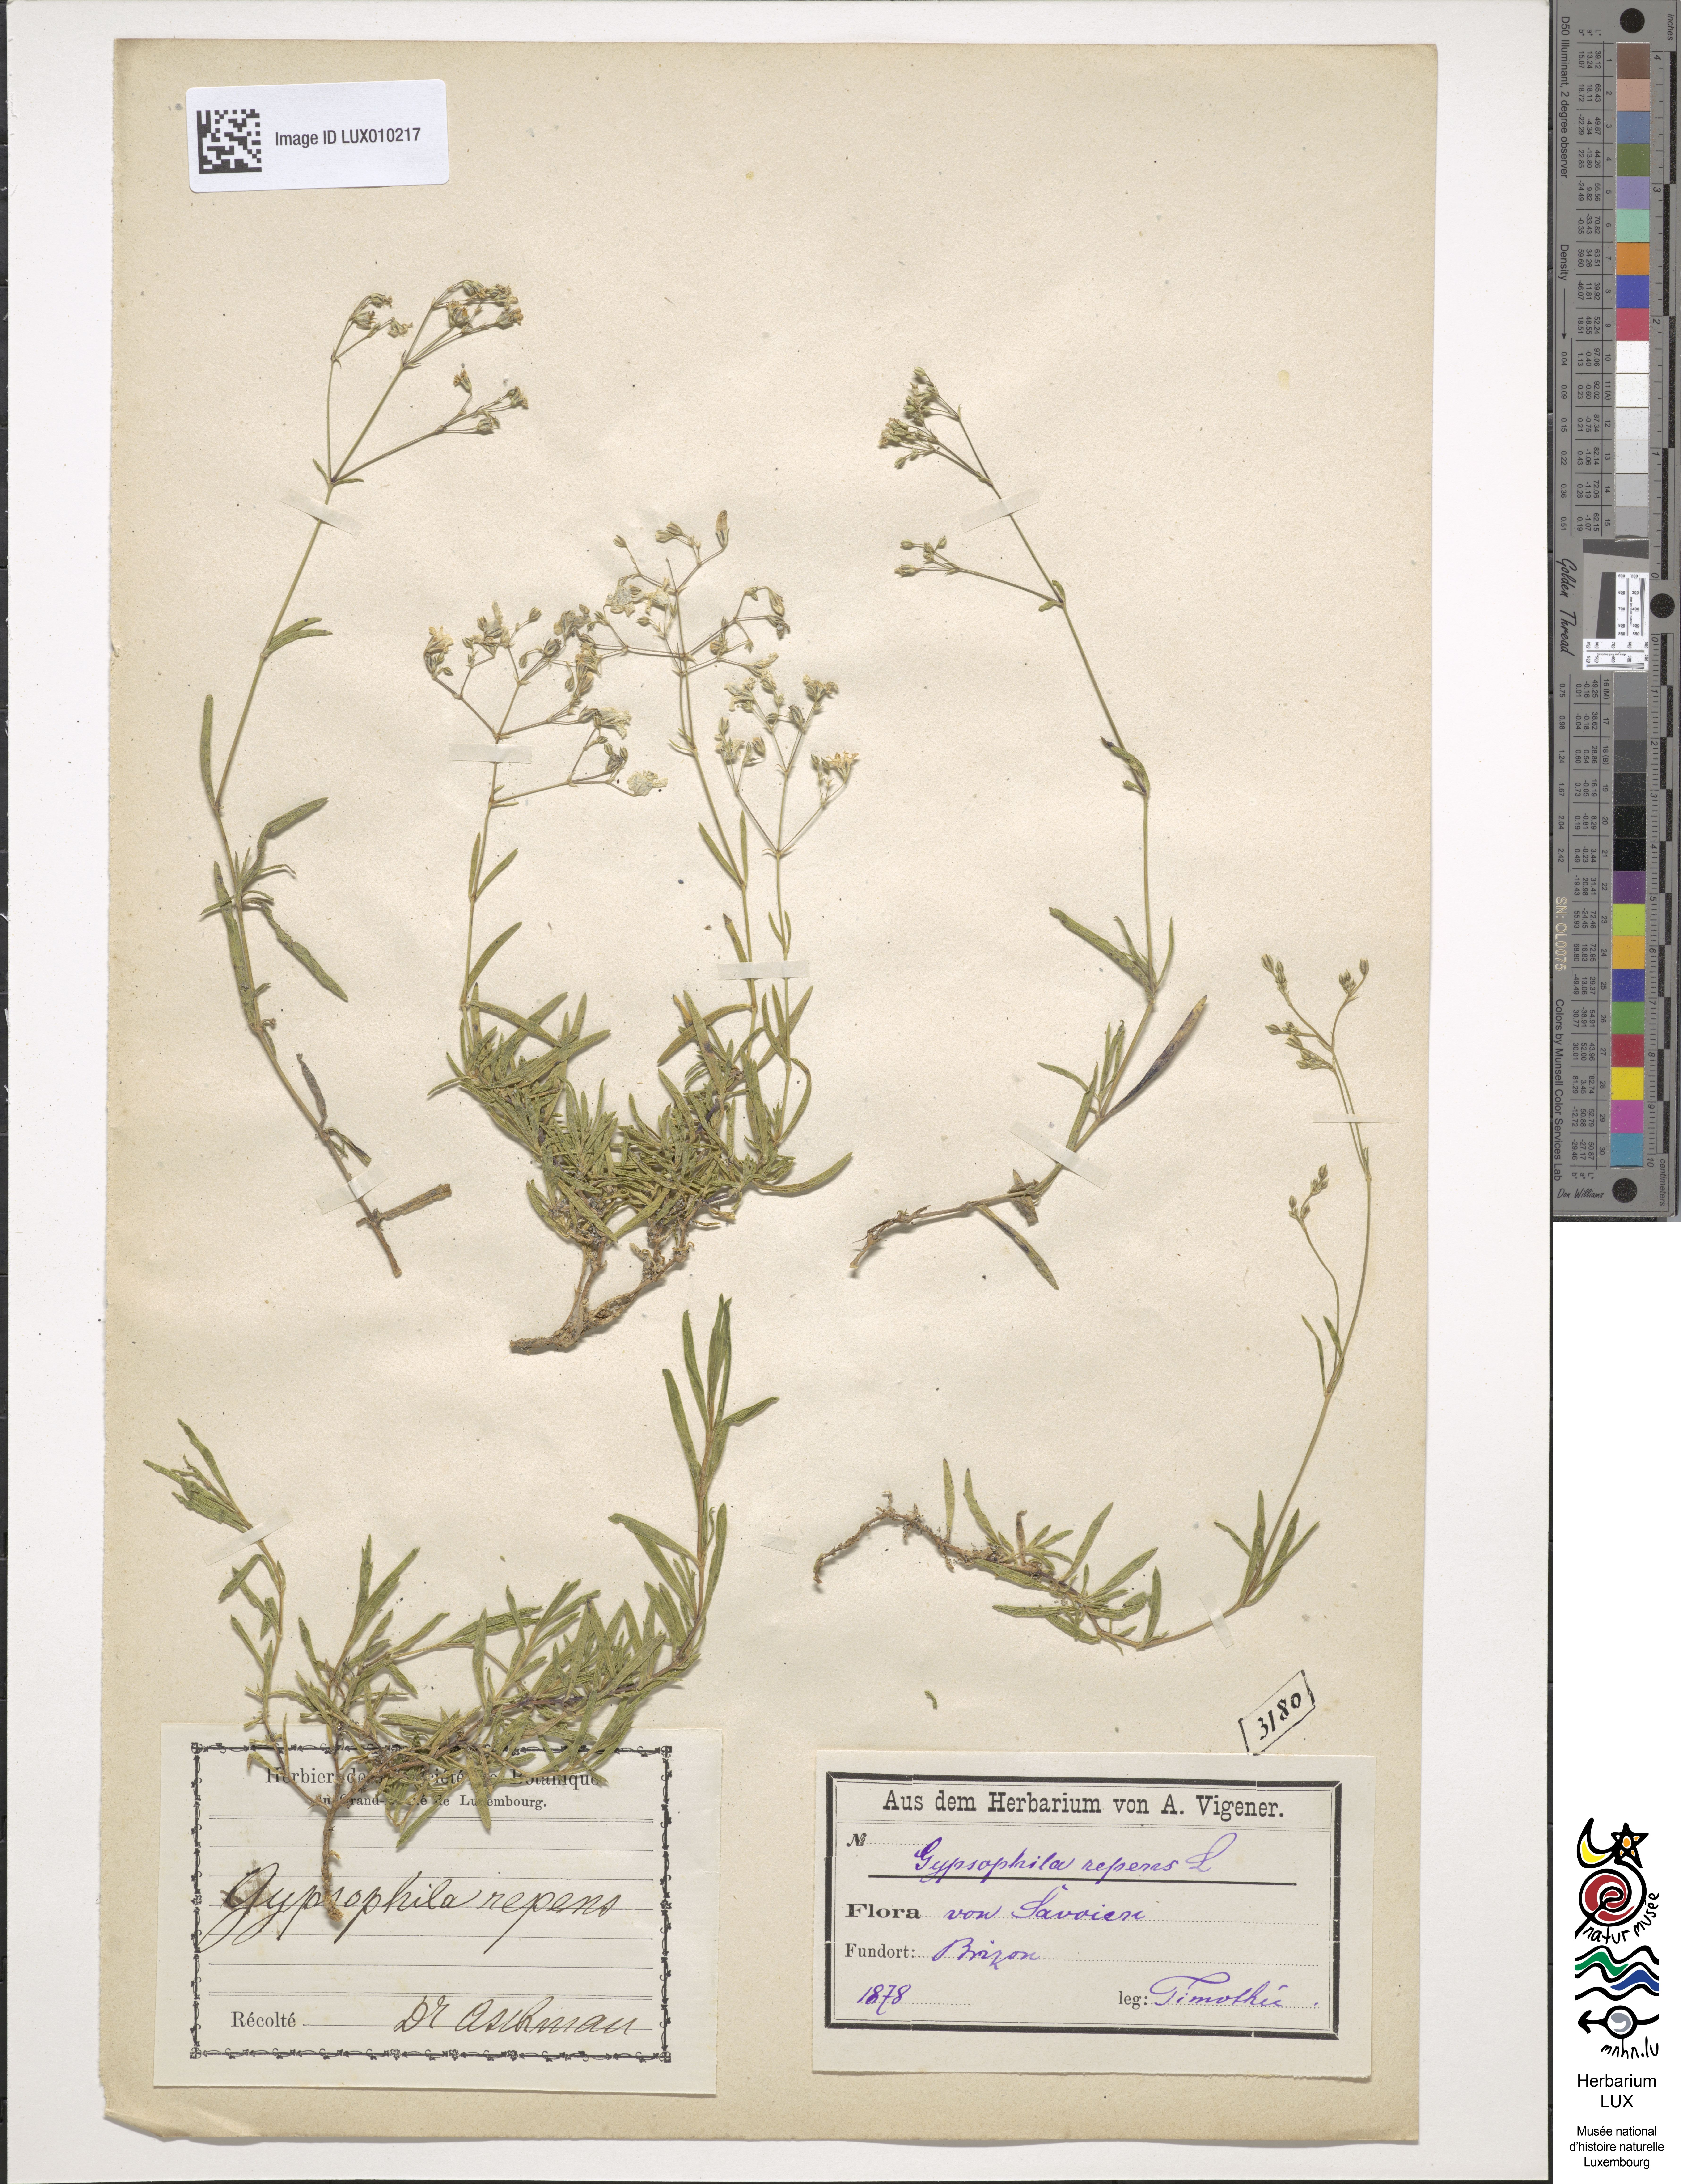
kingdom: Plantae
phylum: Tracheophyta
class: Magnoliopsida
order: Caryophyllales
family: Caryophyllaceae
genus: Gypsophila
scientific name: Gypsophila repens
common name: Creeping baby's-breath
